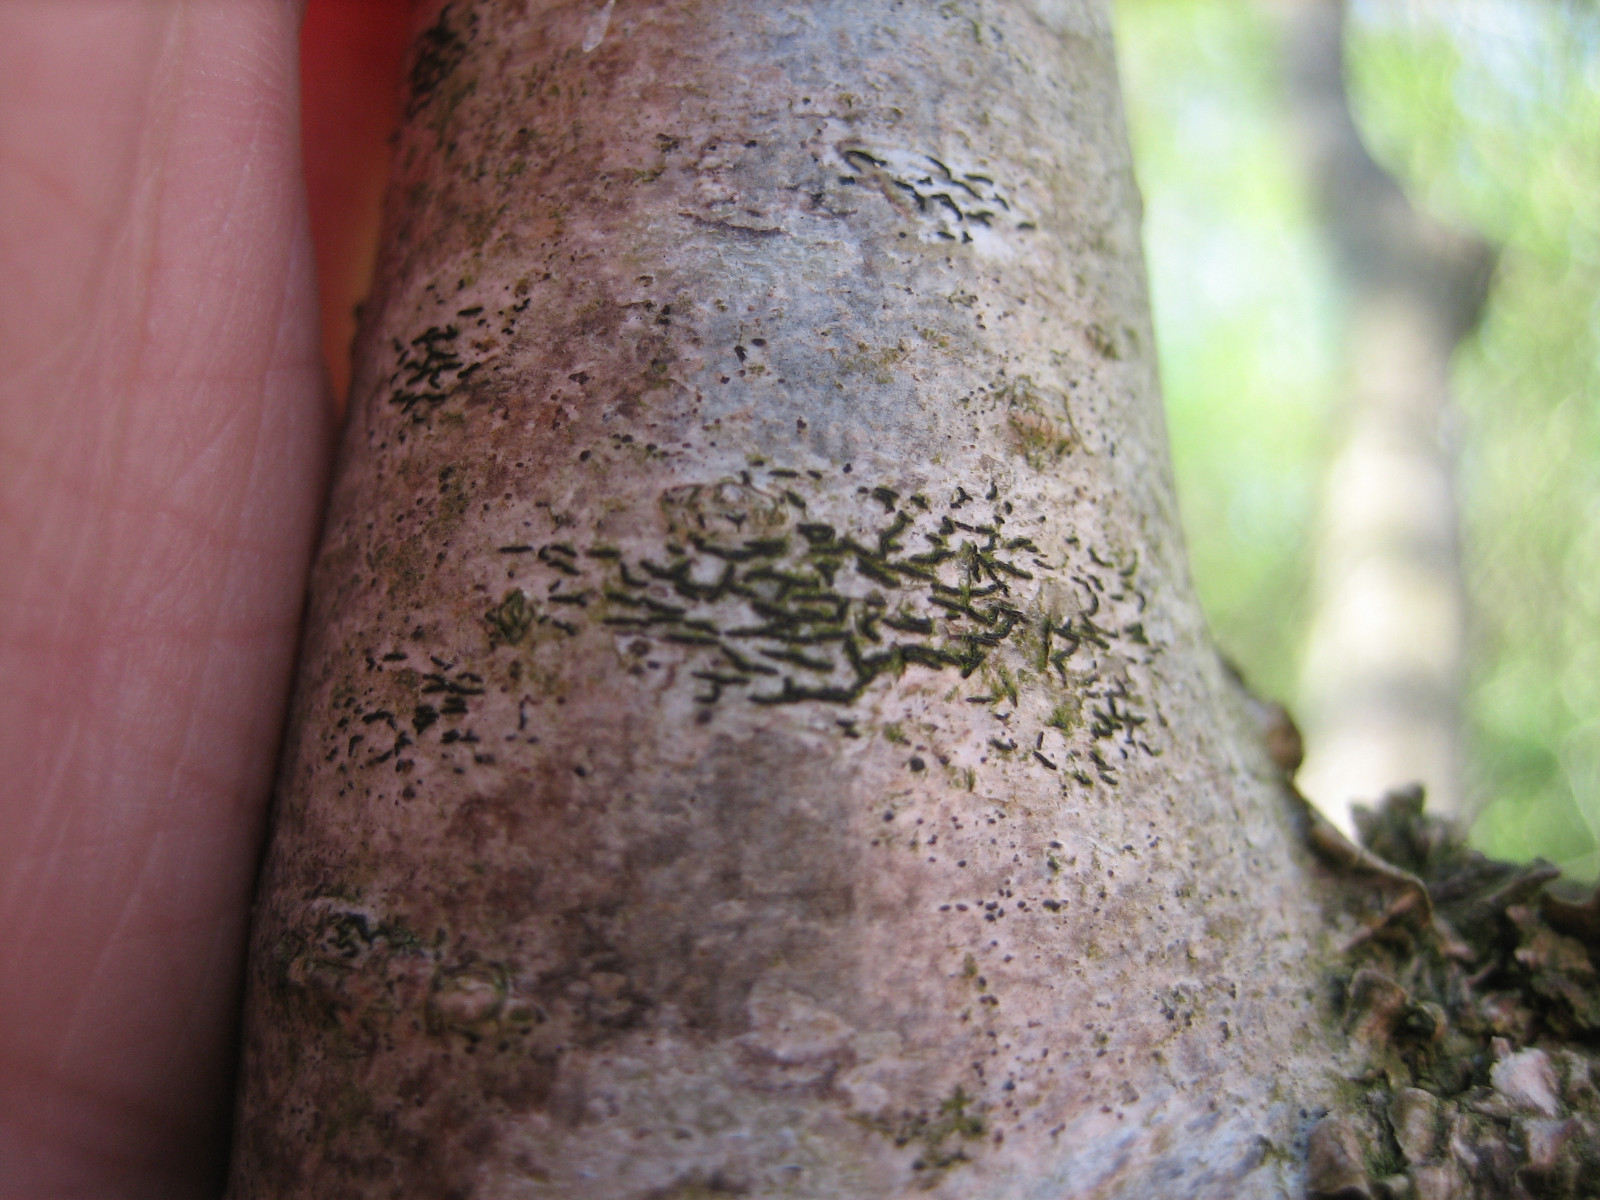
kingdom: Fungi
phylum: Ascomycota
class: Arthoniomycetes
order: Arthoniales
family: Arthoniaceae
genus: Arthonia
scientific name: Arthonia atra
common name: sort bogstavlav
